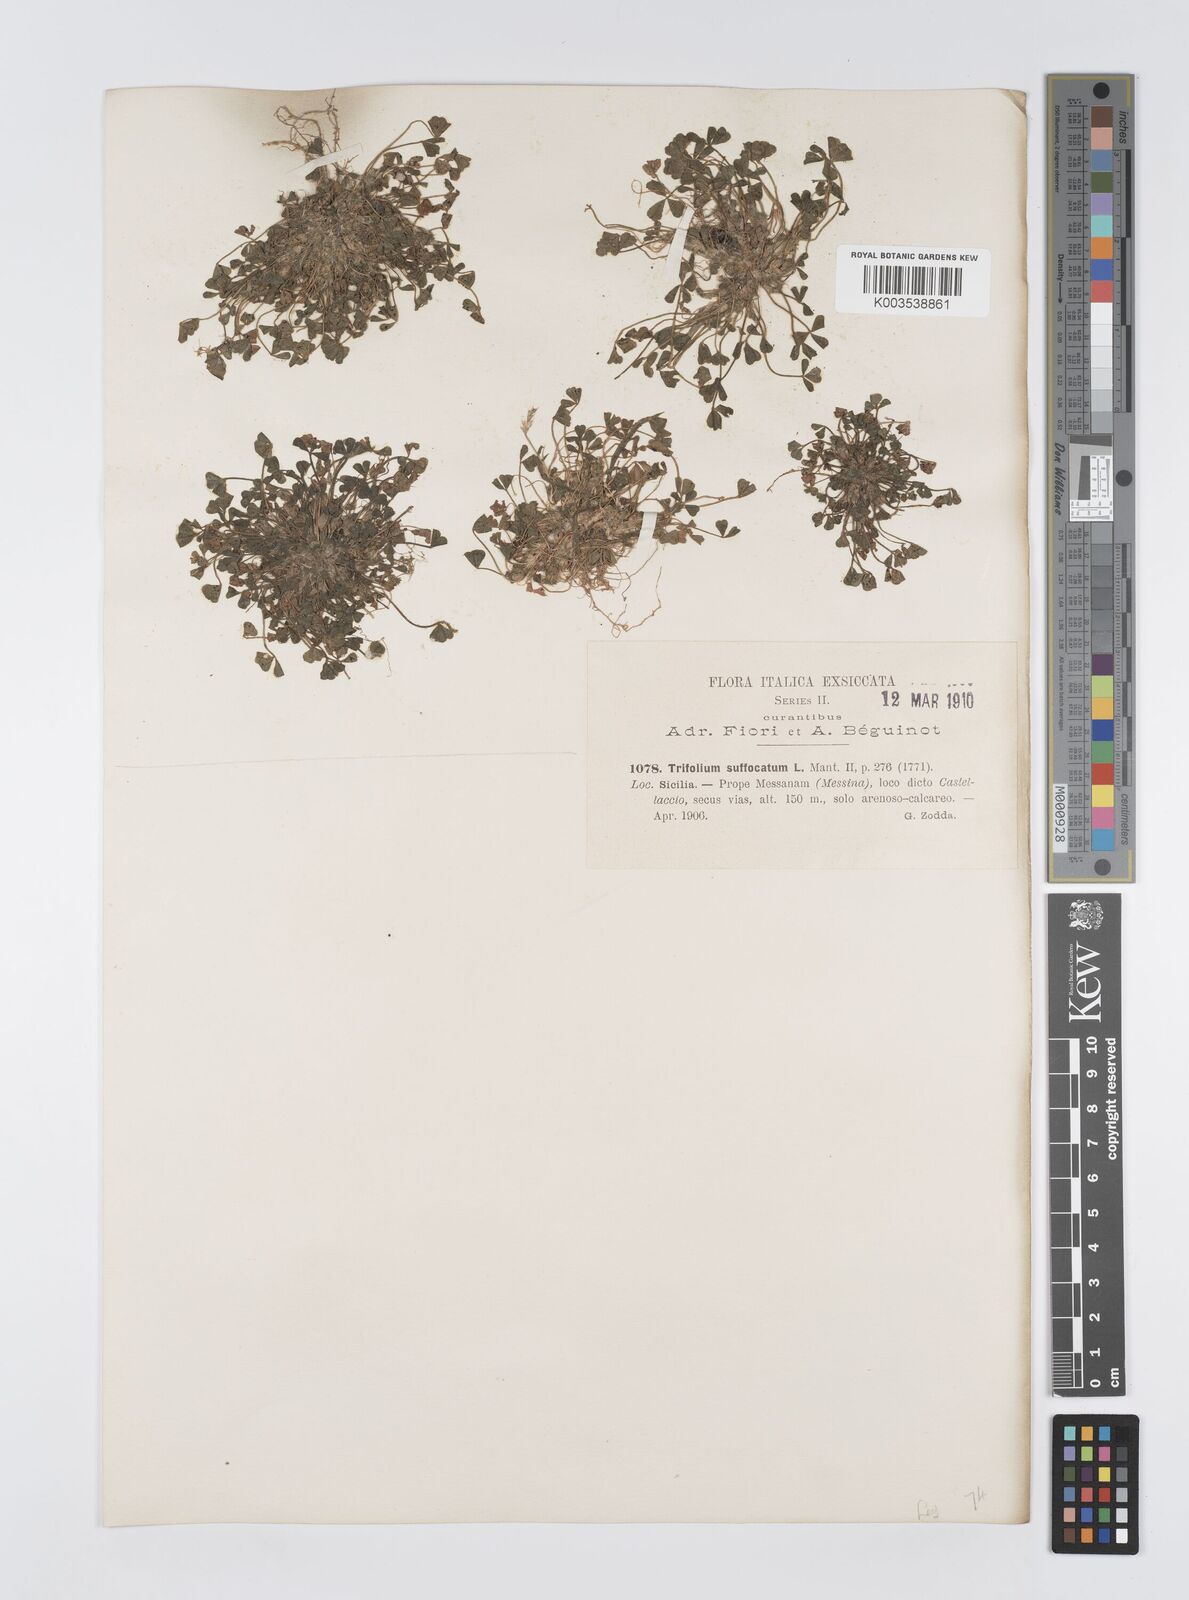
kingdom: Plantae
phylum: Tracheophyta
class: Magnoliopsida
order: Fabales
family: Fabaceae
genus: Trifolium
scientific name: Trifolium suffocatum
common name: Suffocated clover
